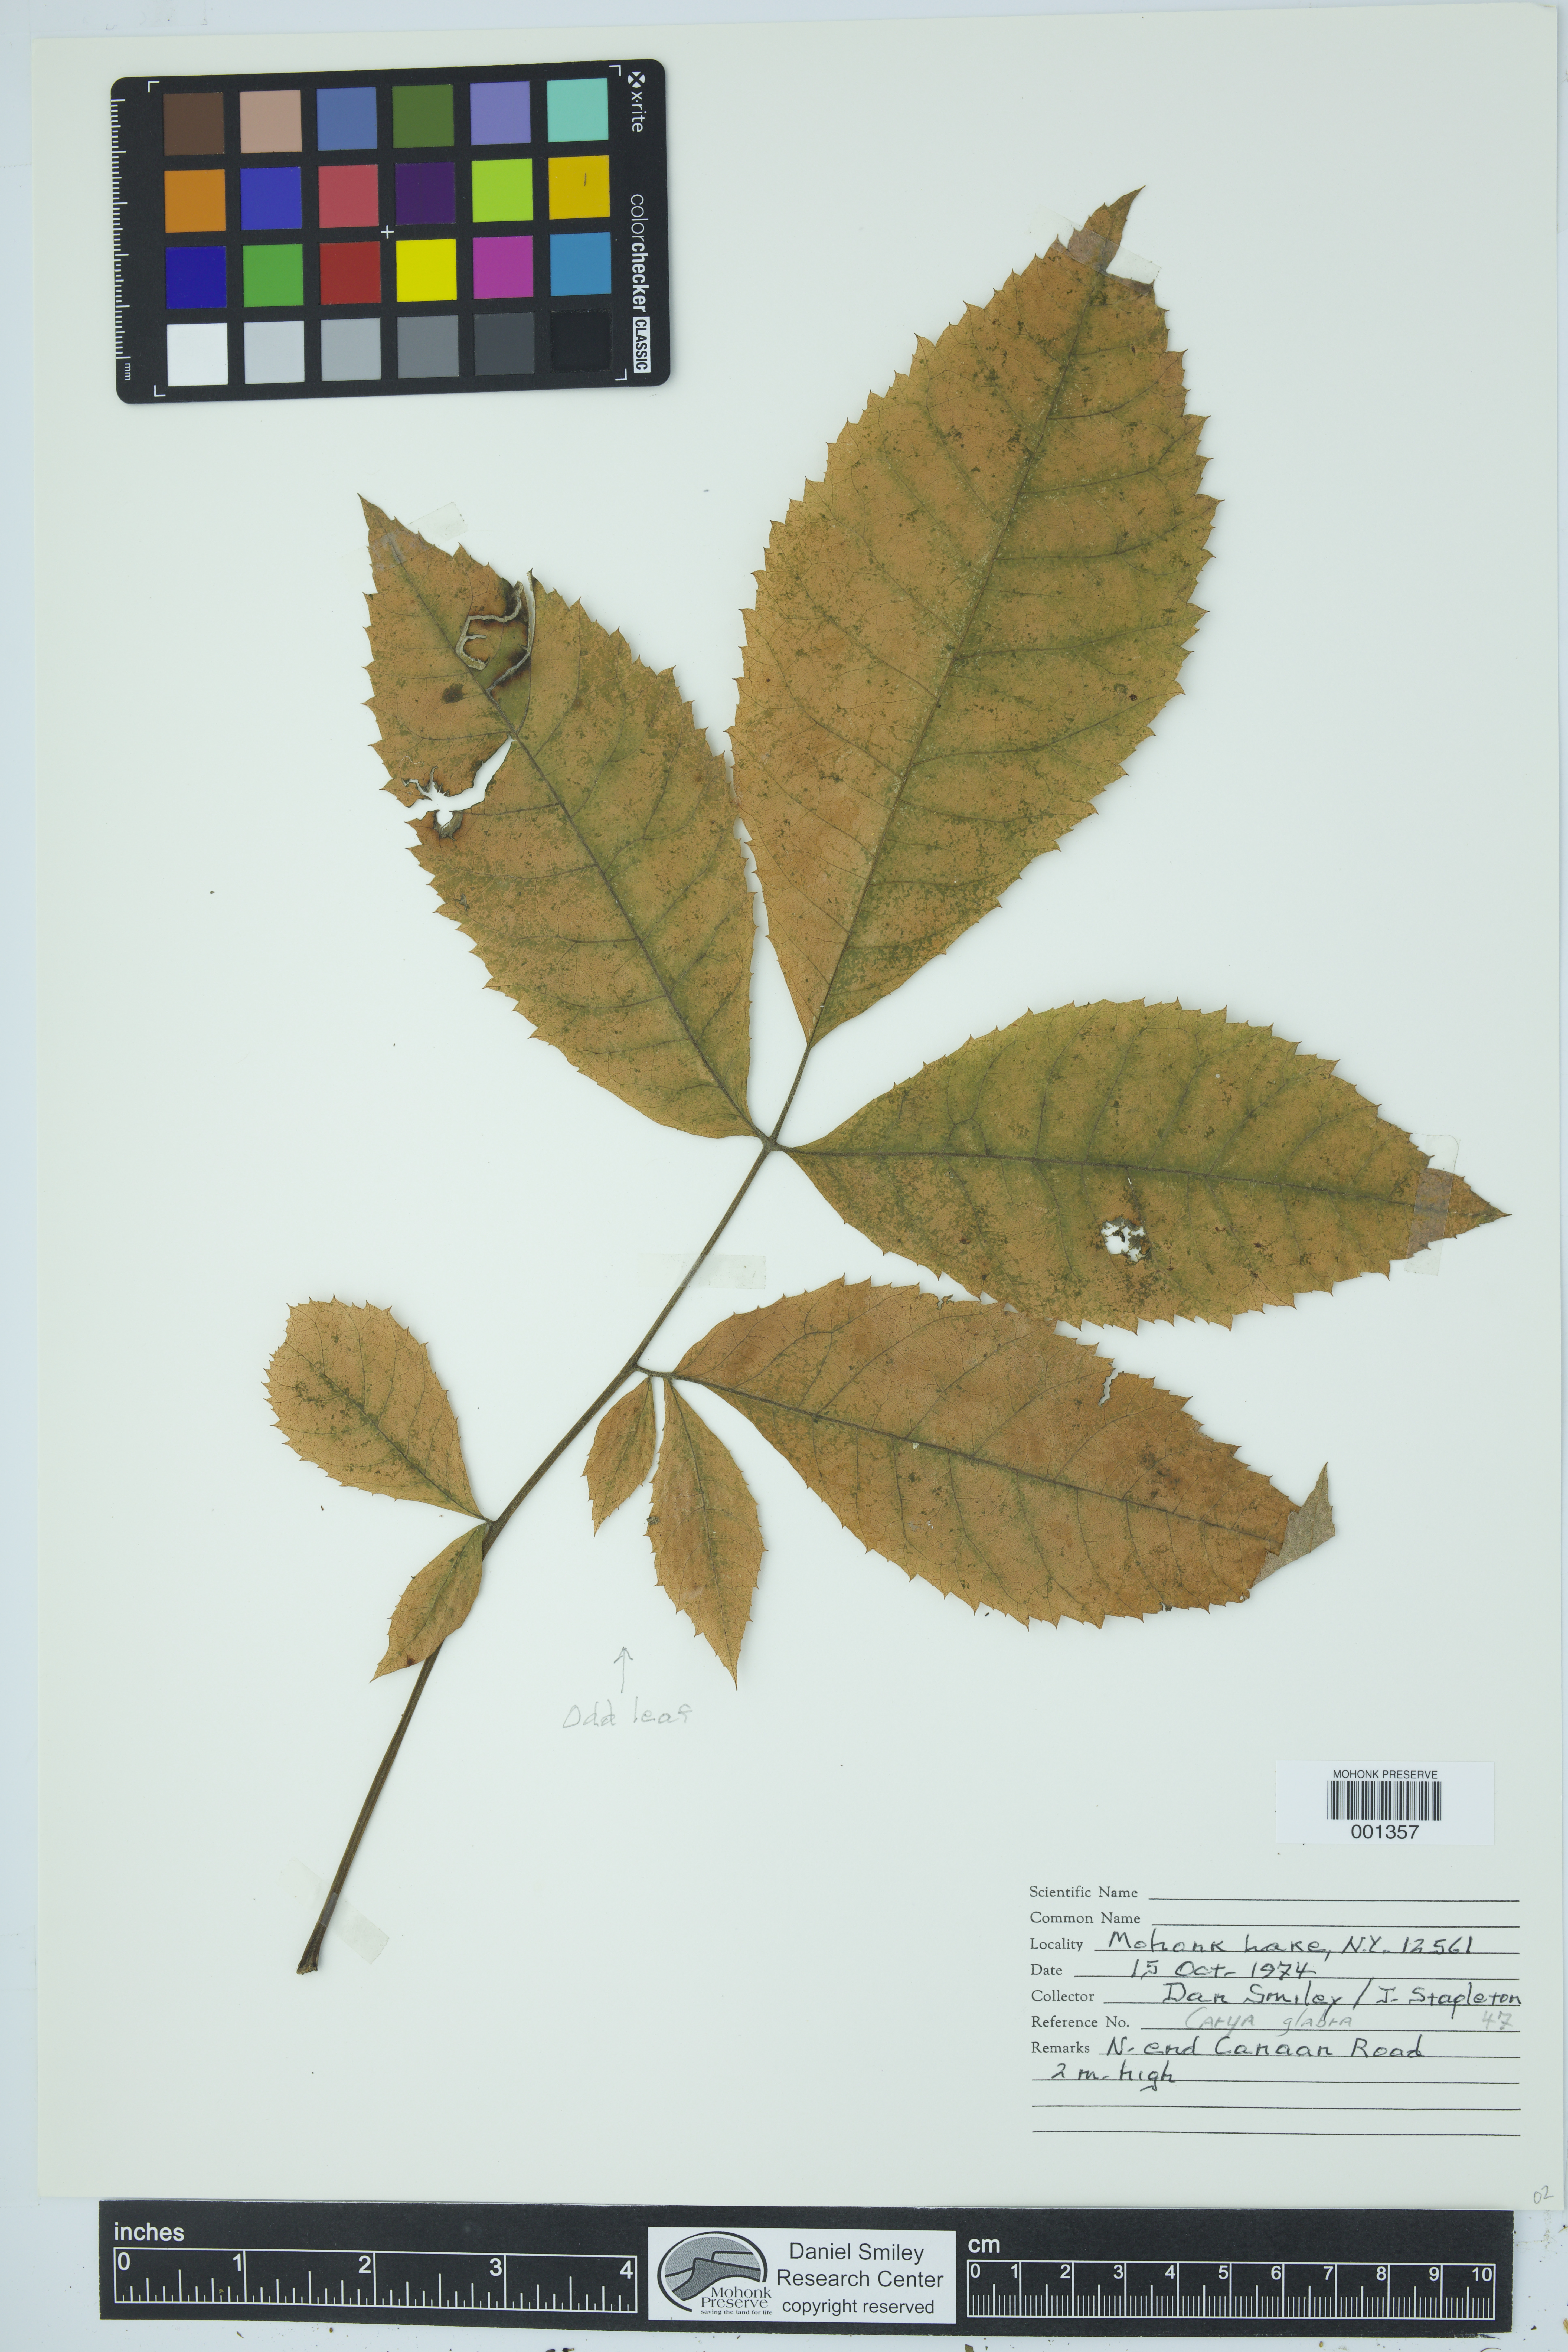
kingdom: Plantae
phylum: Tracheophyta
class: Magnoliopsida
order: Fagales
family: Juglandaceae
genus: Carya
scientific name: Carya glabra
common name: Pignut hickory
